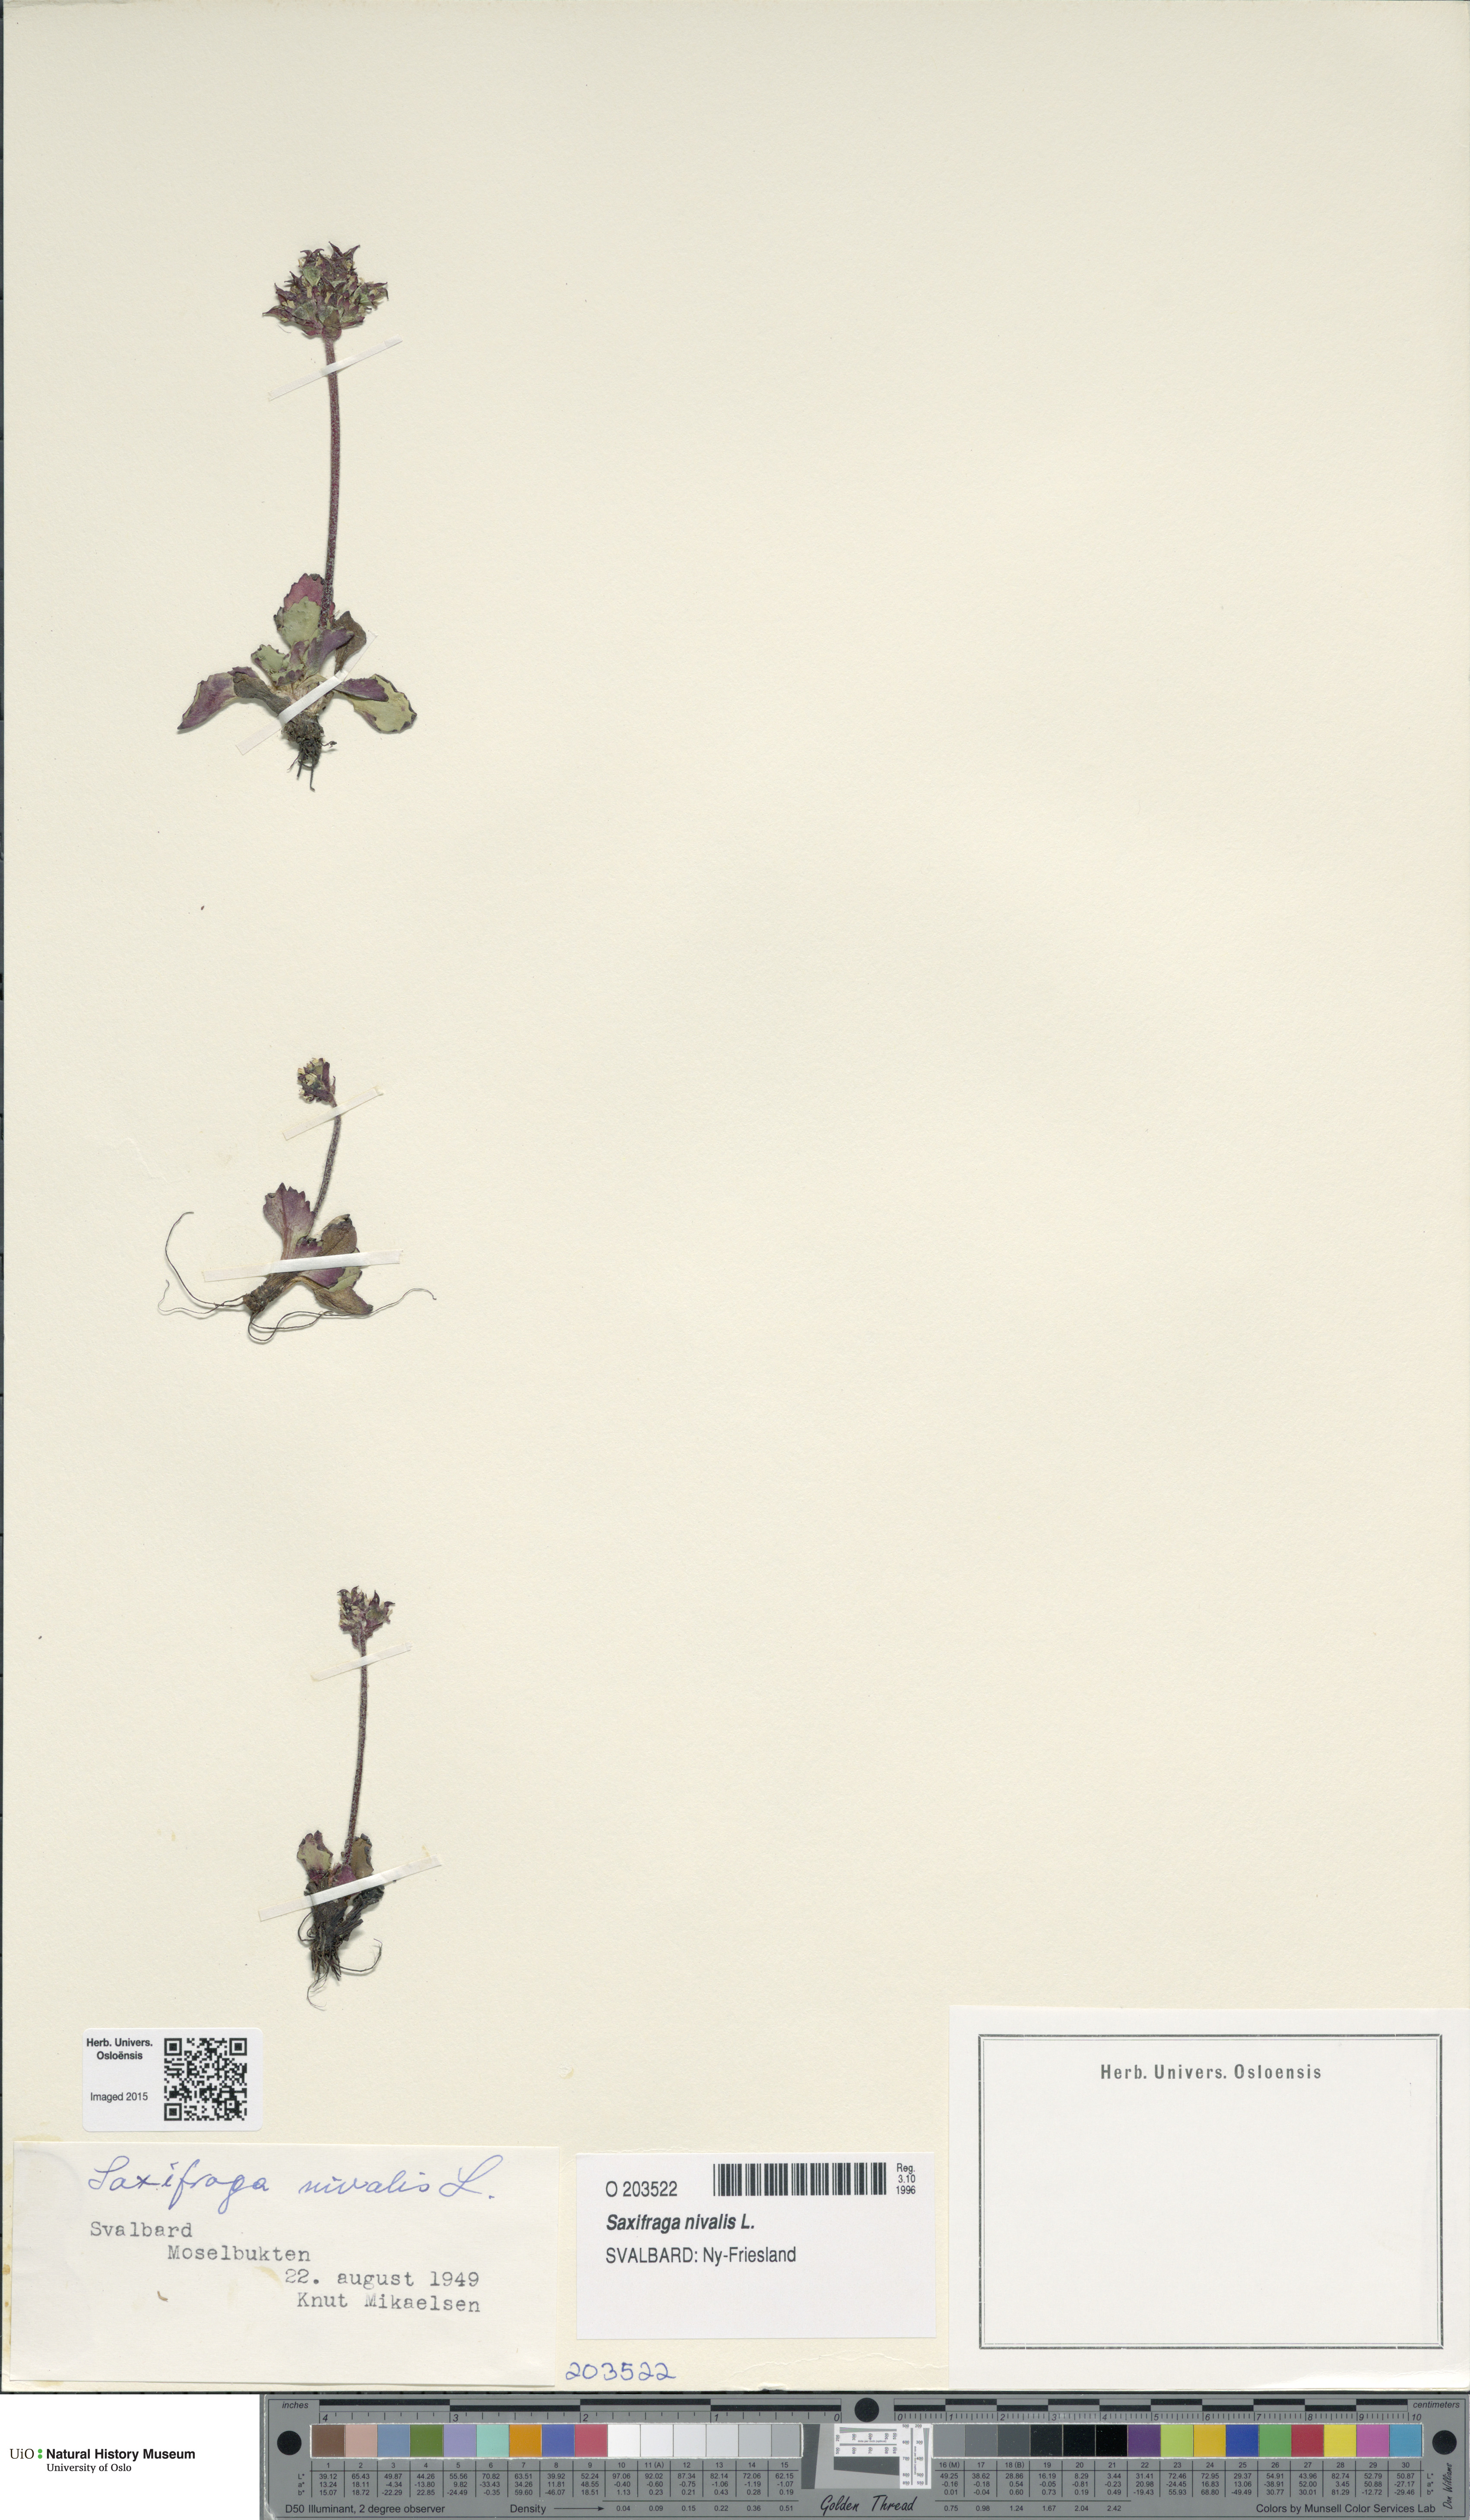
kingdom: Plantae
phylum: Tracheophyta
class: Magnoliopsida
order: Saxifragales
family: Saxifragaceae
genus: Micranthes
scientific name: Micranthes nivalis
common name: Alpine saxifrage
